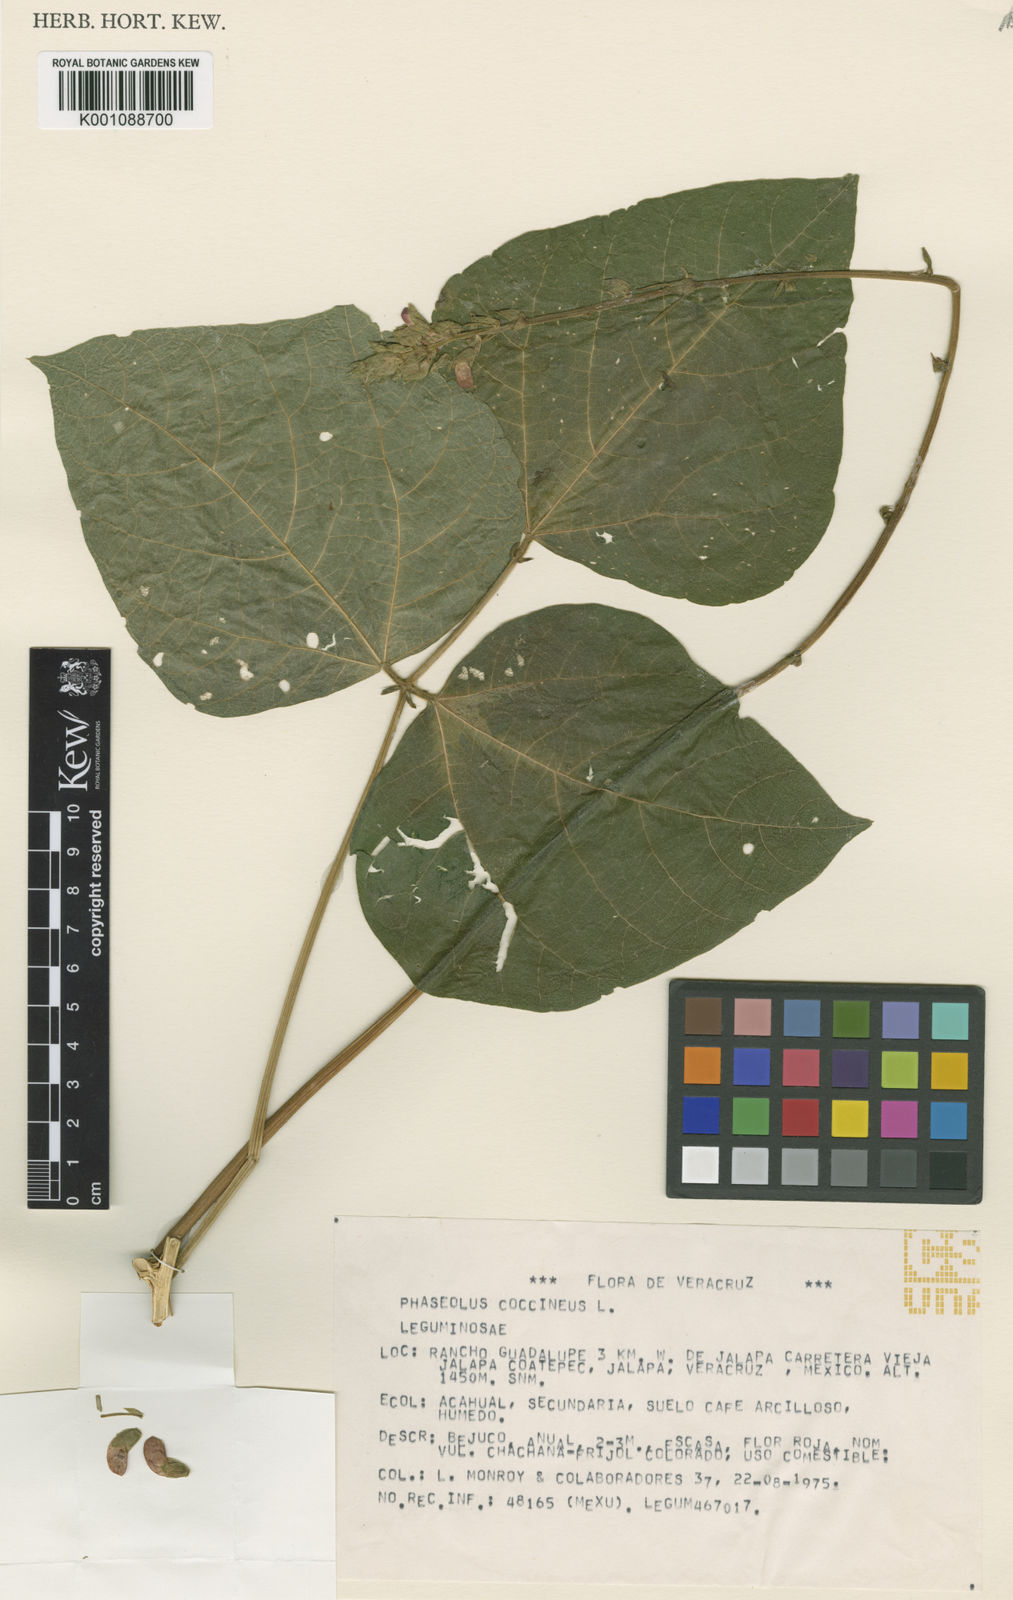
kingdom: Plantae
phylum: Tracheophyta
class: Magnoliopsida
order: Fabales
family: Fabaceae
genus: Phaseolus
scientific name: Phaseolus coccineus
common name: Runner bean
